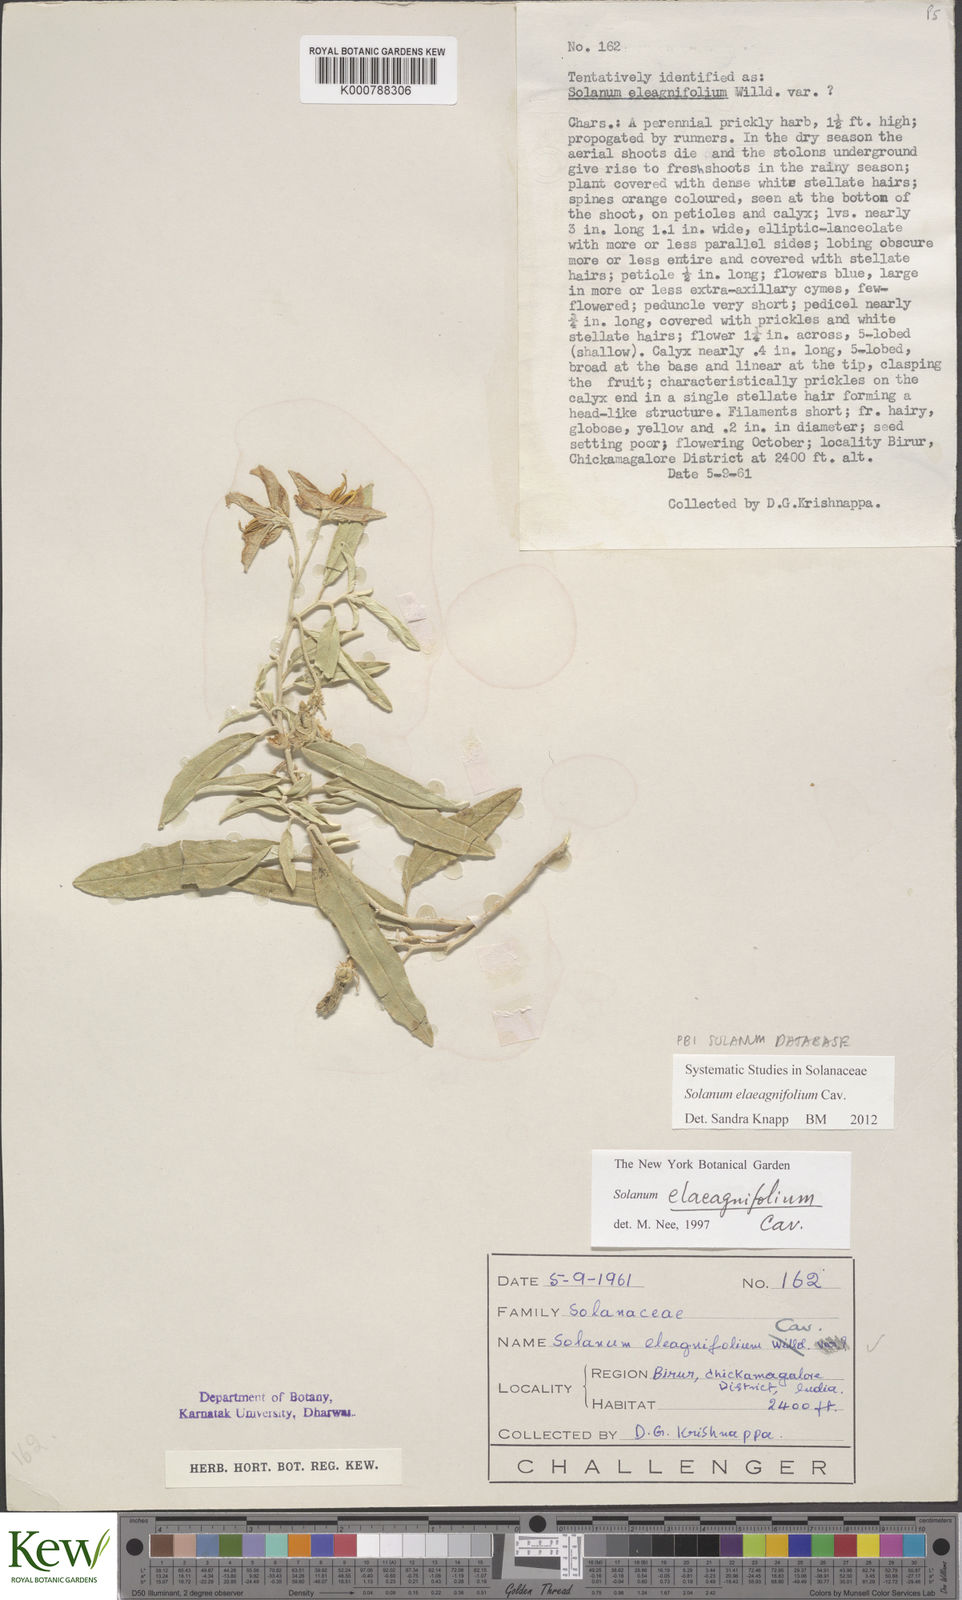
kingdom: Plantae
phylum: Tracheophyta
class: Magnoliopsida
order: Solanales
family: Solanaceae
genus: Solanum
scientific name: Solanum elaeagnifolium
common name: Silverleaf nightshade
